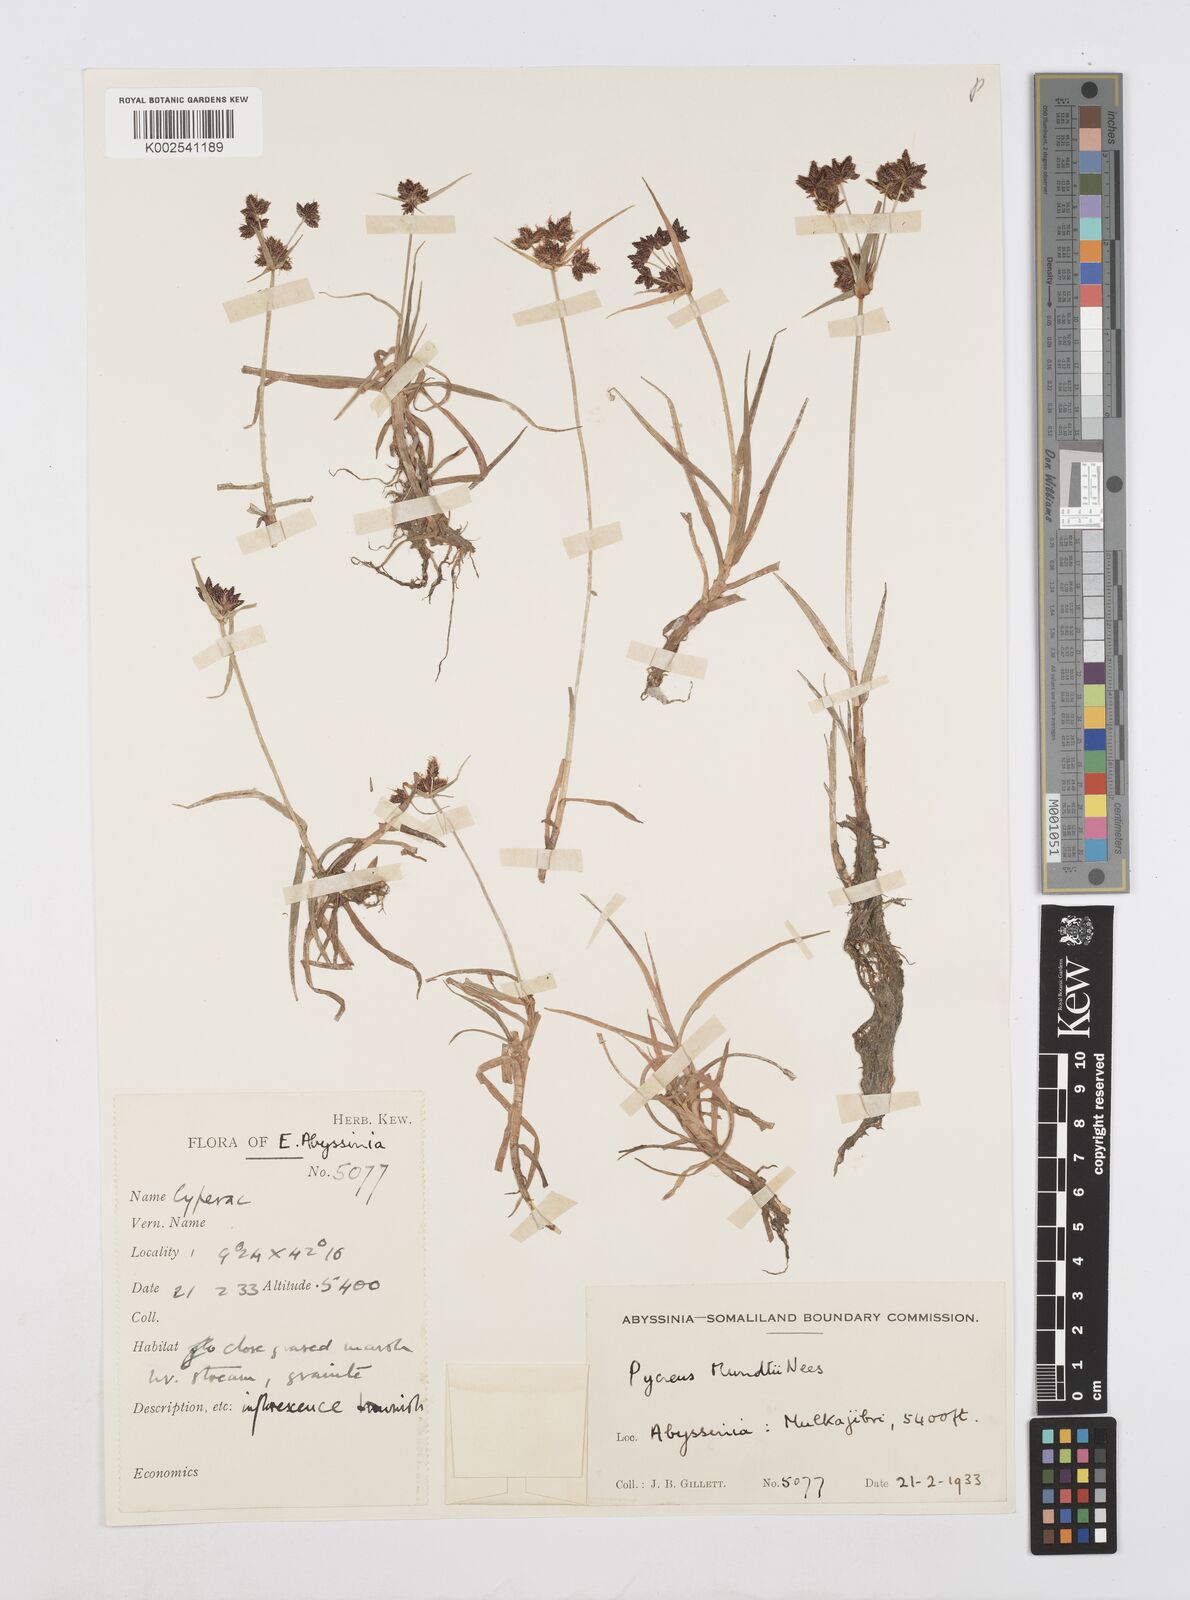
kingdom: Plantae
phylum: Tracheophyta
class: Liliopsida
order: Poales
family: Cyperaceae
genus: Cyperus
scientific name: Cyperus mundii
